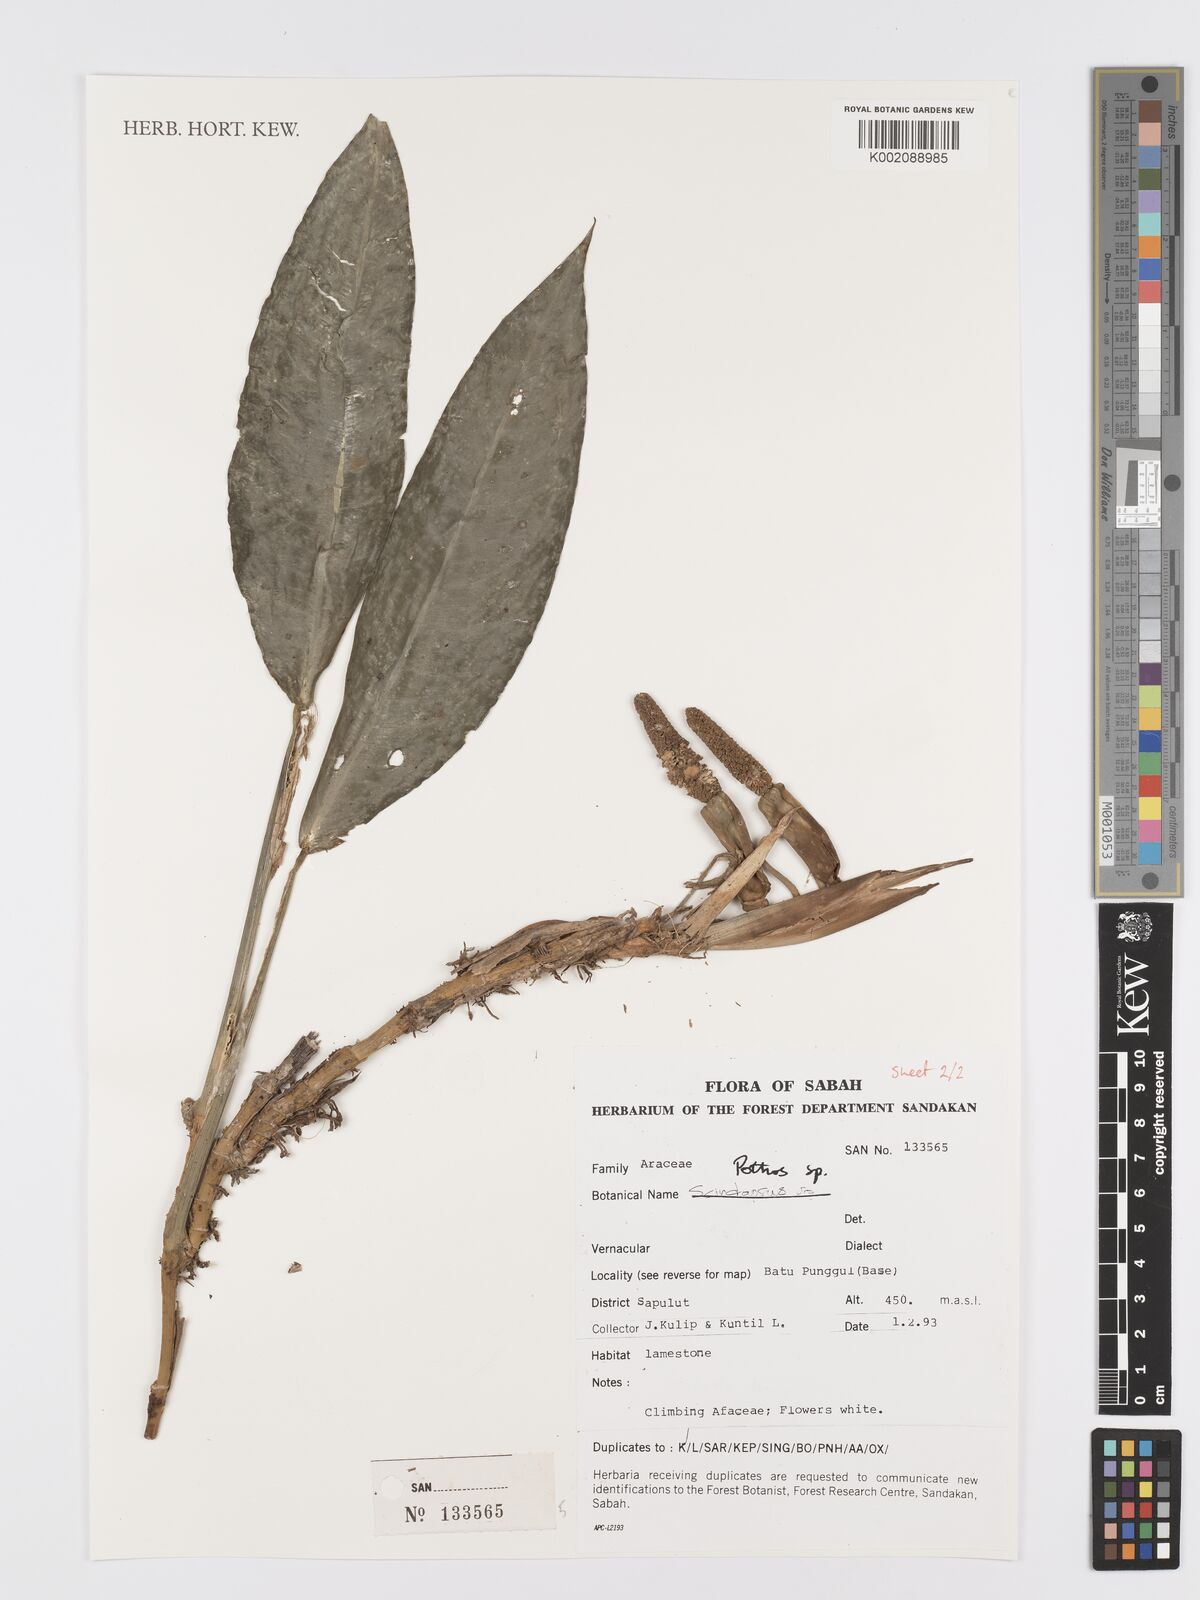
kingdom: Plantae
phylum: Tracheophyta
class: Liliopsida
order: Alismatales
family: Araceae
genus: Pothos
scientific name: Pothos
